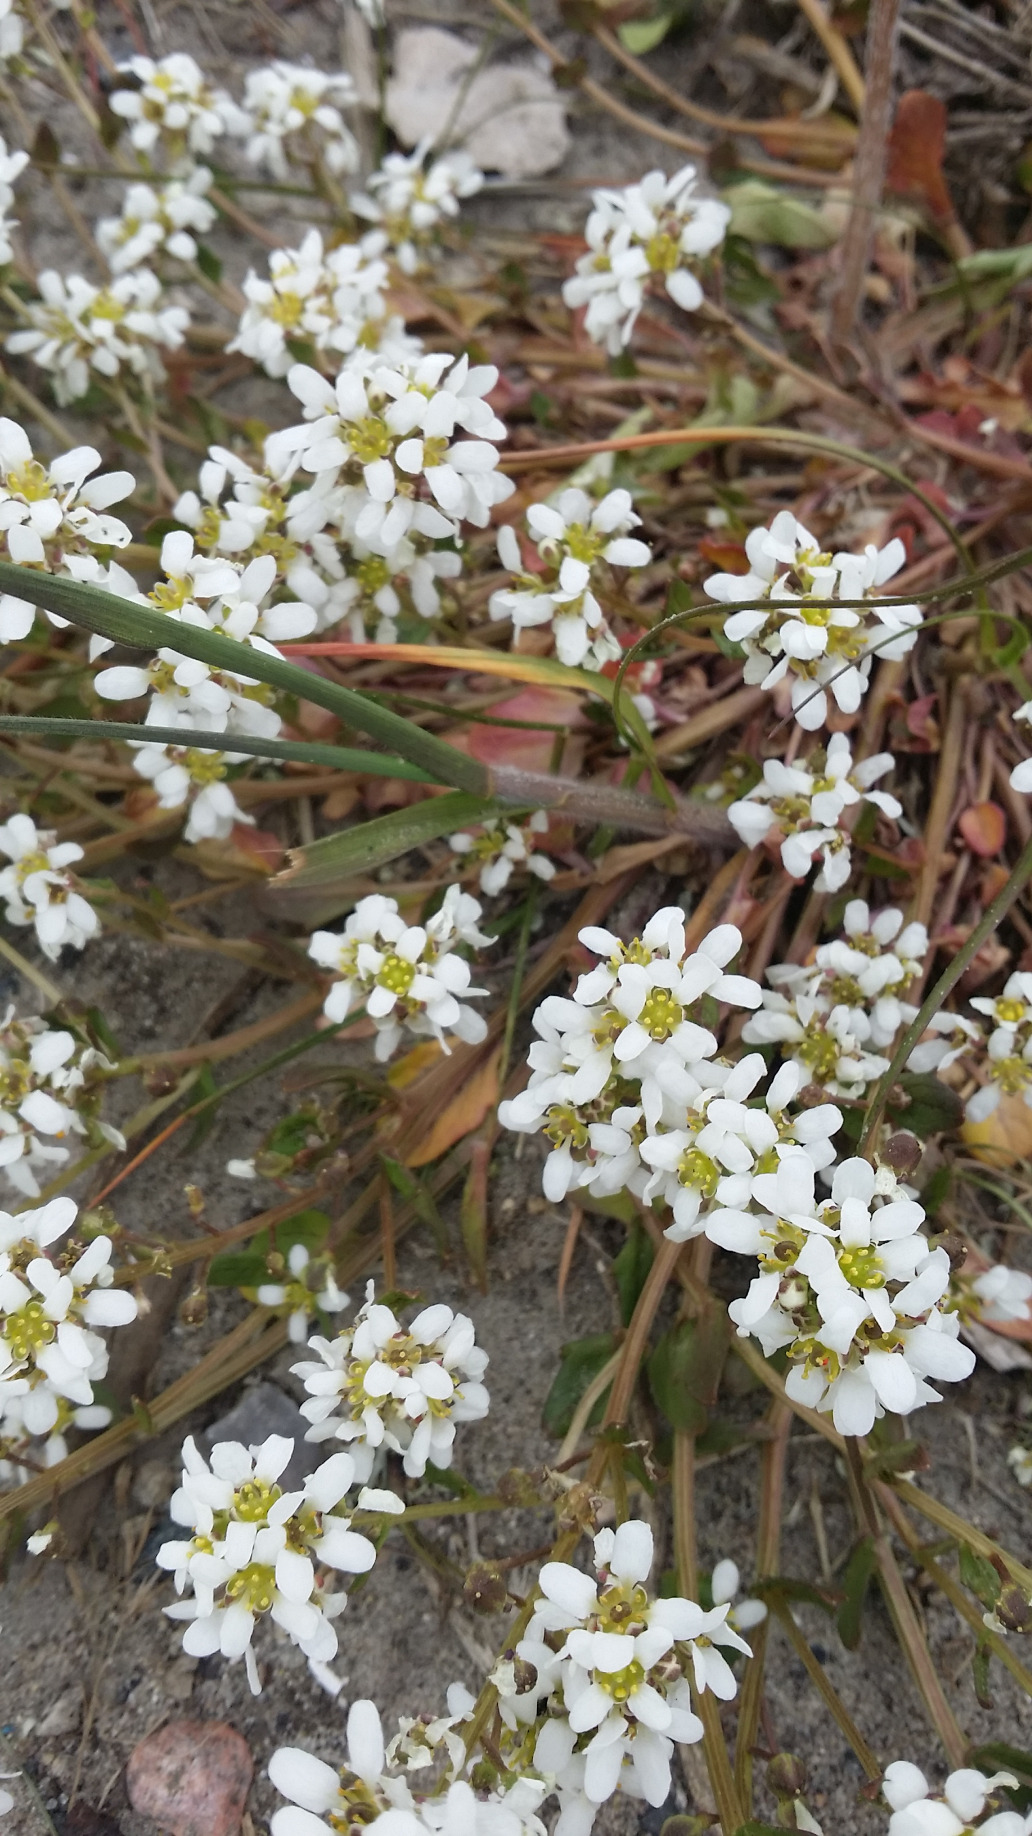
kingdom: Plantae
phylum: Tracheophyta
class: Magnoliopsida
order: Brassicales
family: Brassicaceae
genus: Cochlearia
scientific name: Cochlearia officinalis
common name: Læge-kokleare (underart)
